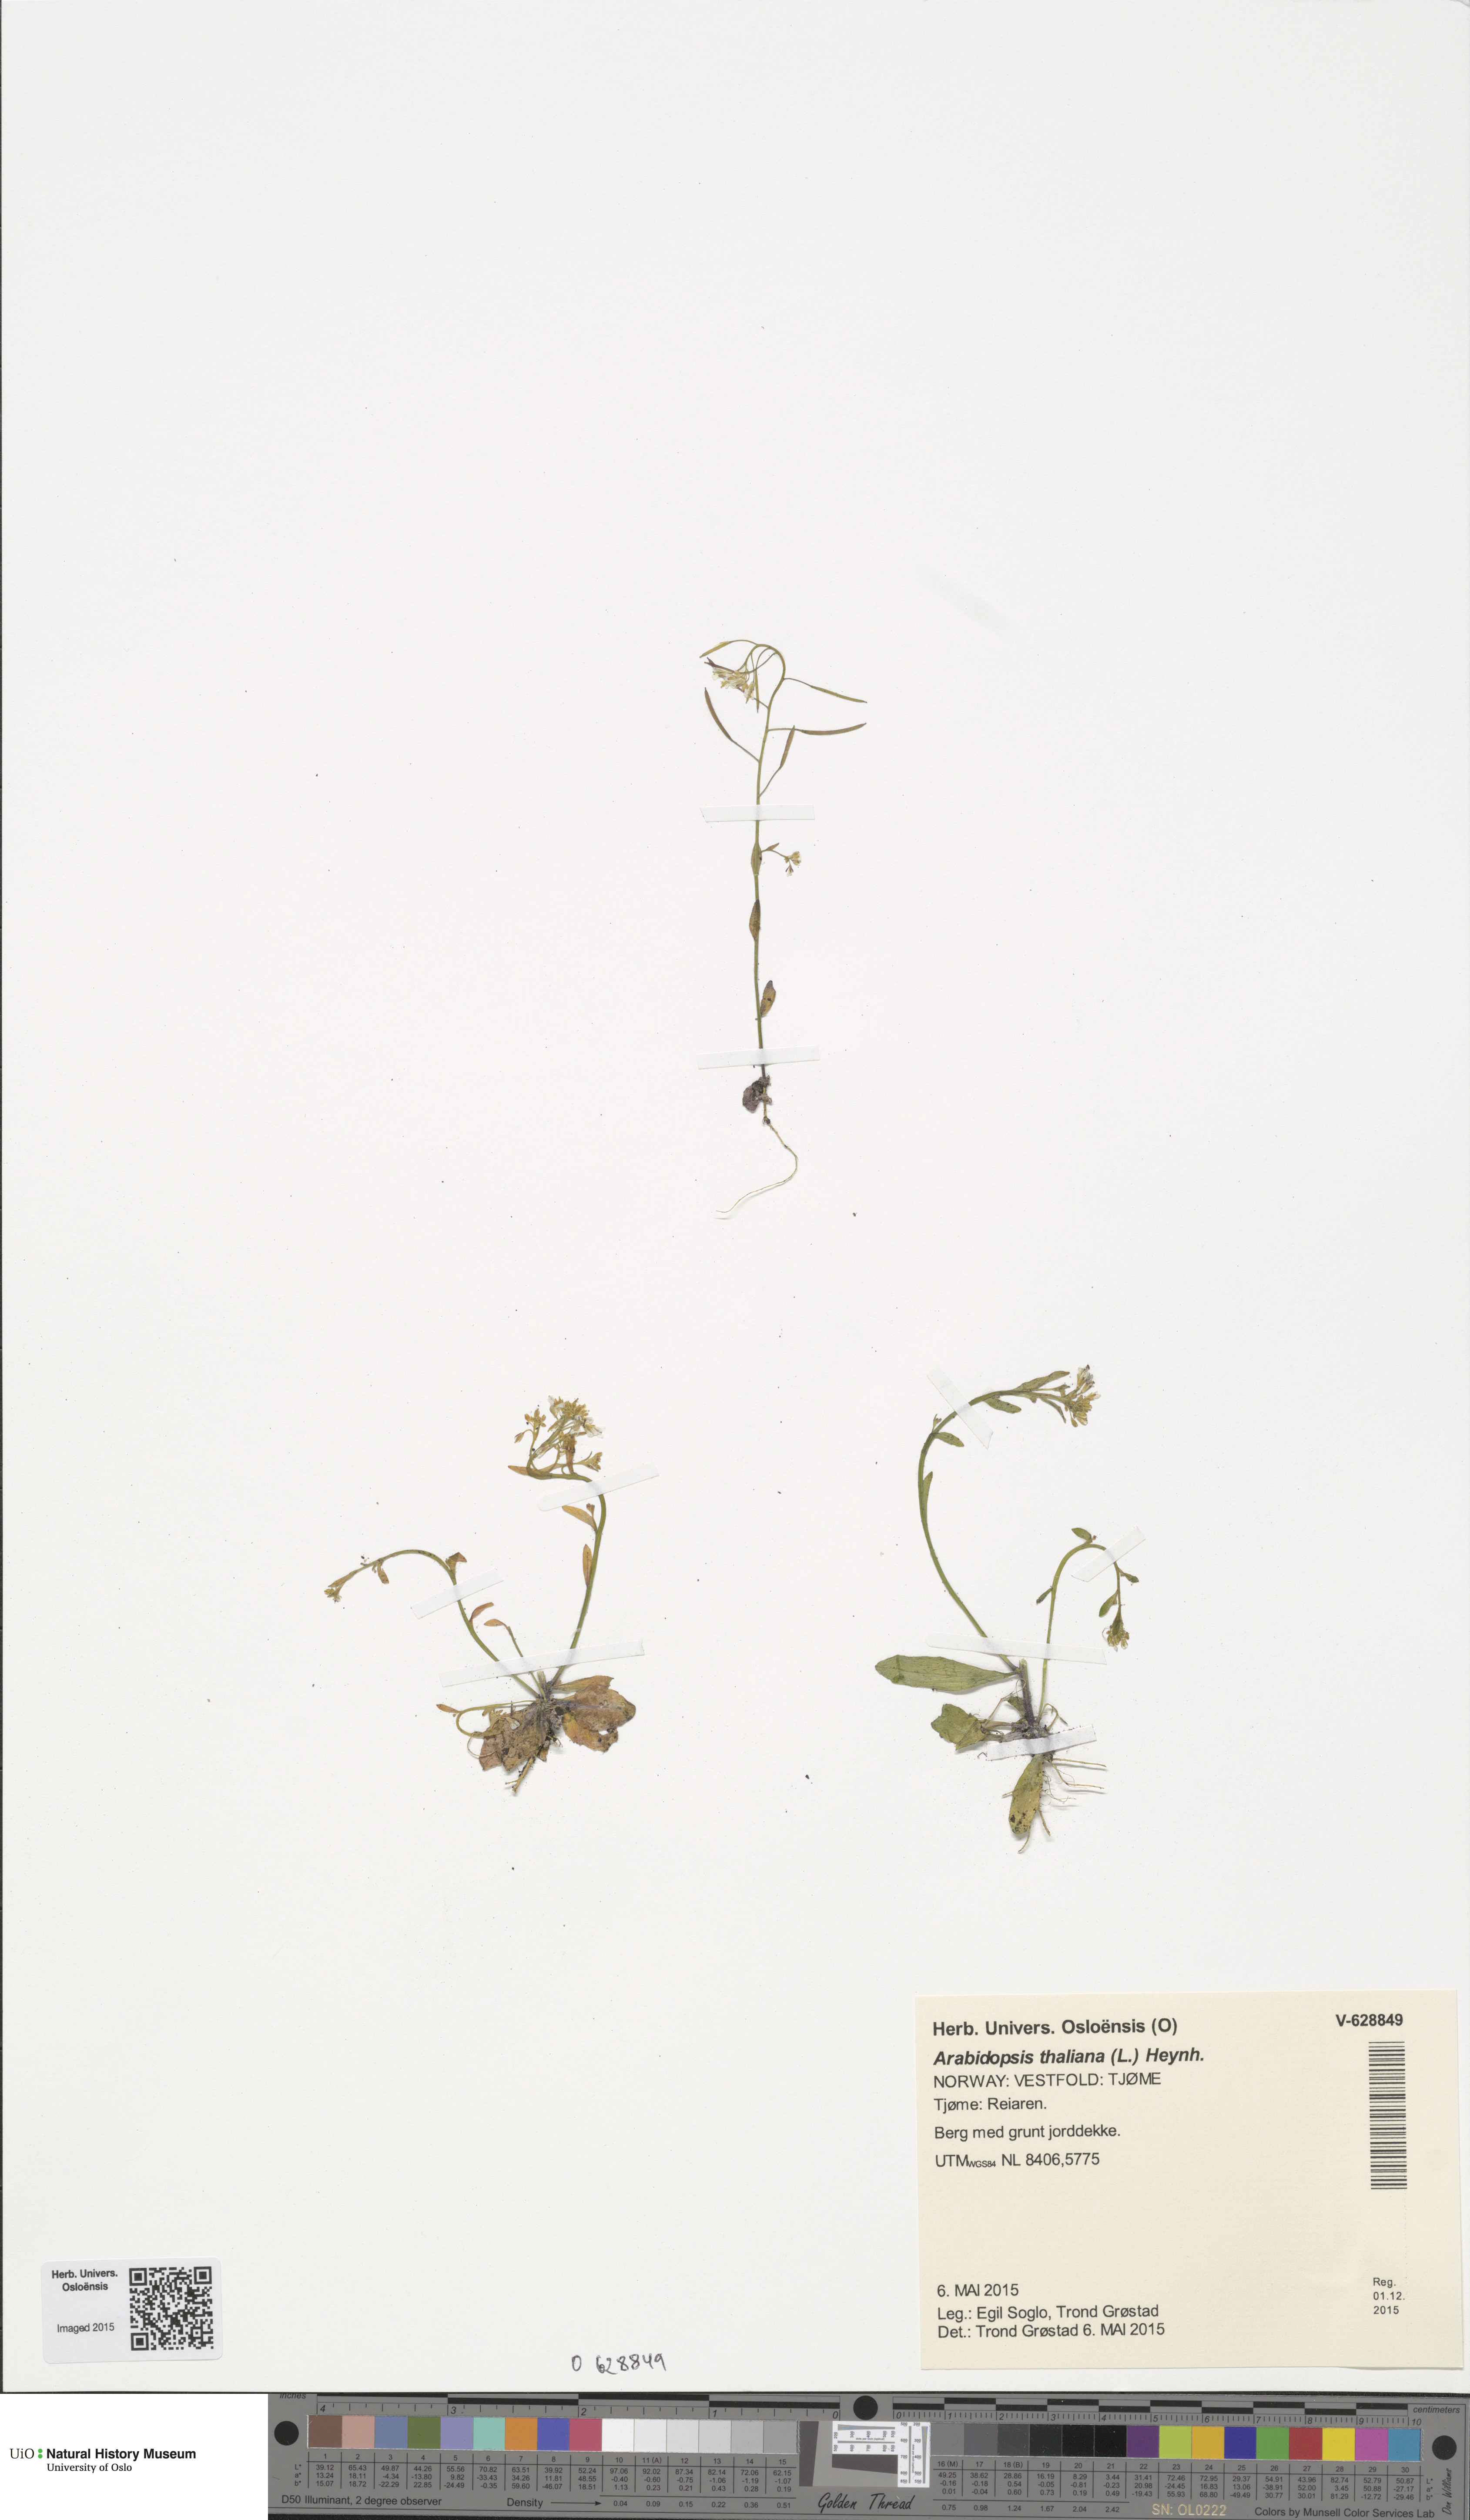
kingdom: Plantae
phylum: Tracheophyta
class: Magnoliopsida
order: Brassicales
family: Brassicaceae
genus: Arabidopsis
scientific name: Arabidopsis thaliana
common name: Thale cress
